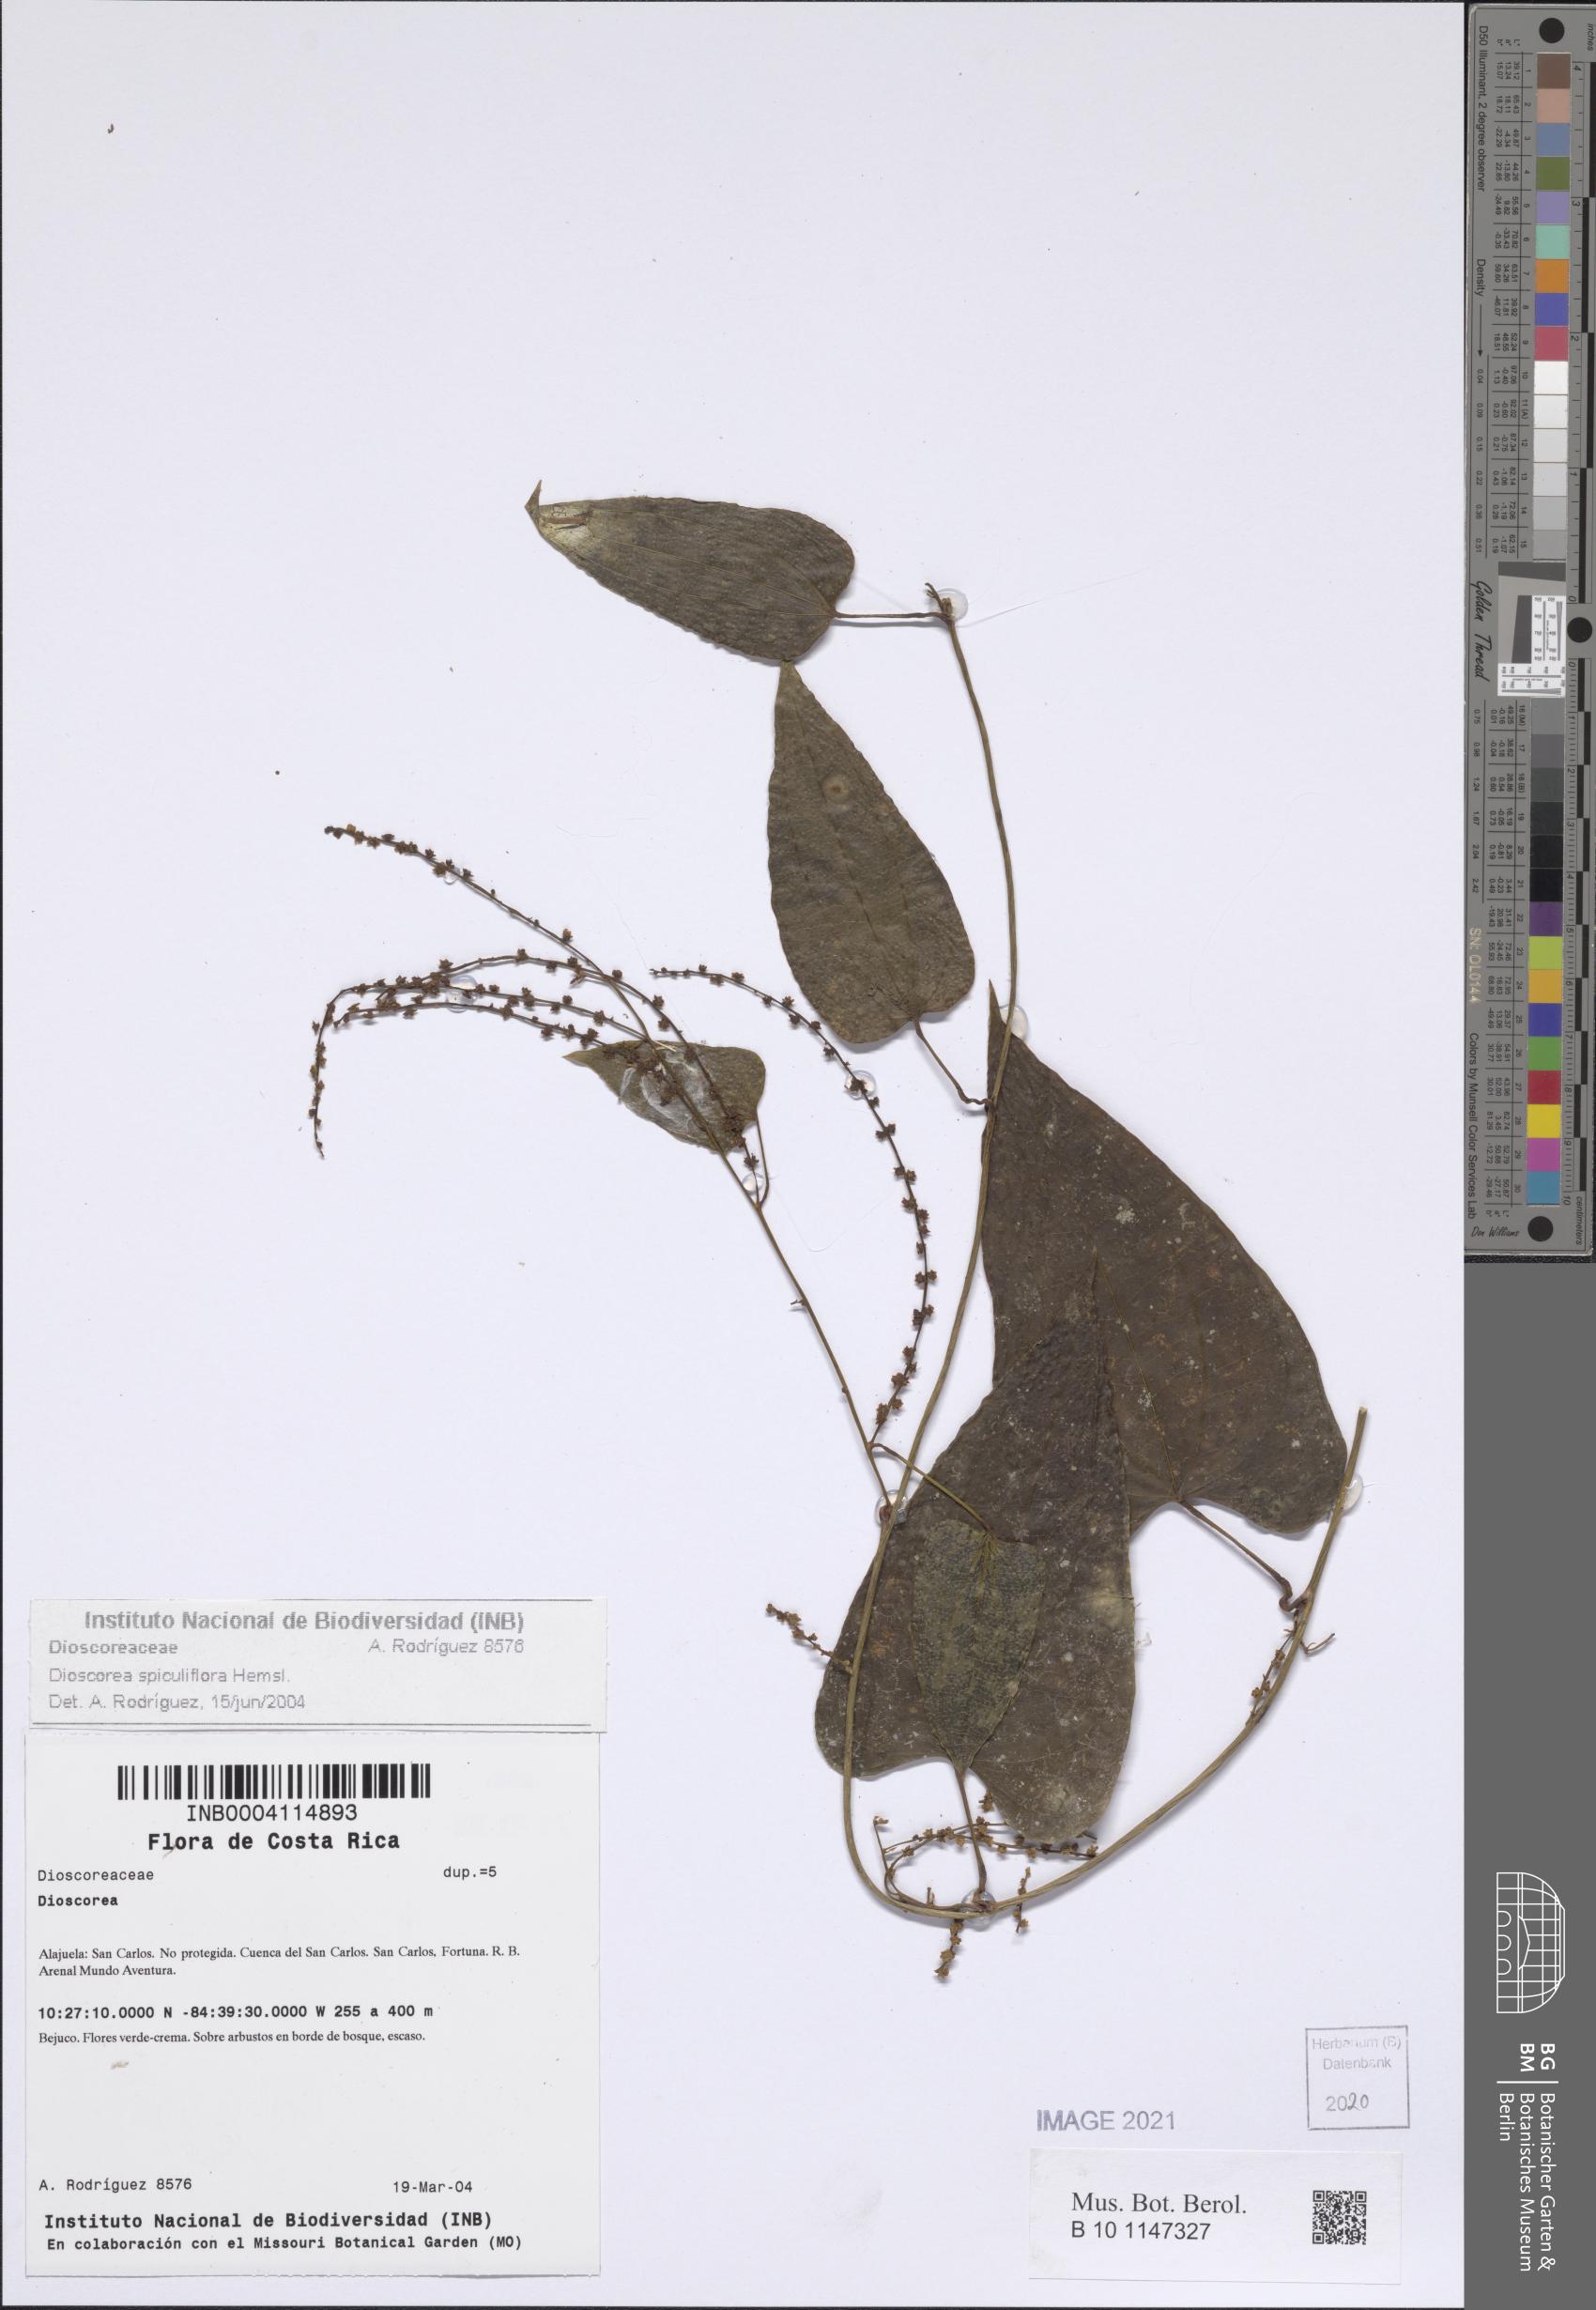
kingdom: Plantae
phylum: Tracheophyta
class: Liliopsida
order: Dioscoreales
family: Dioscoreaceae
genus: Dioscorea
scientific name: Dioscorea spiculiflora
